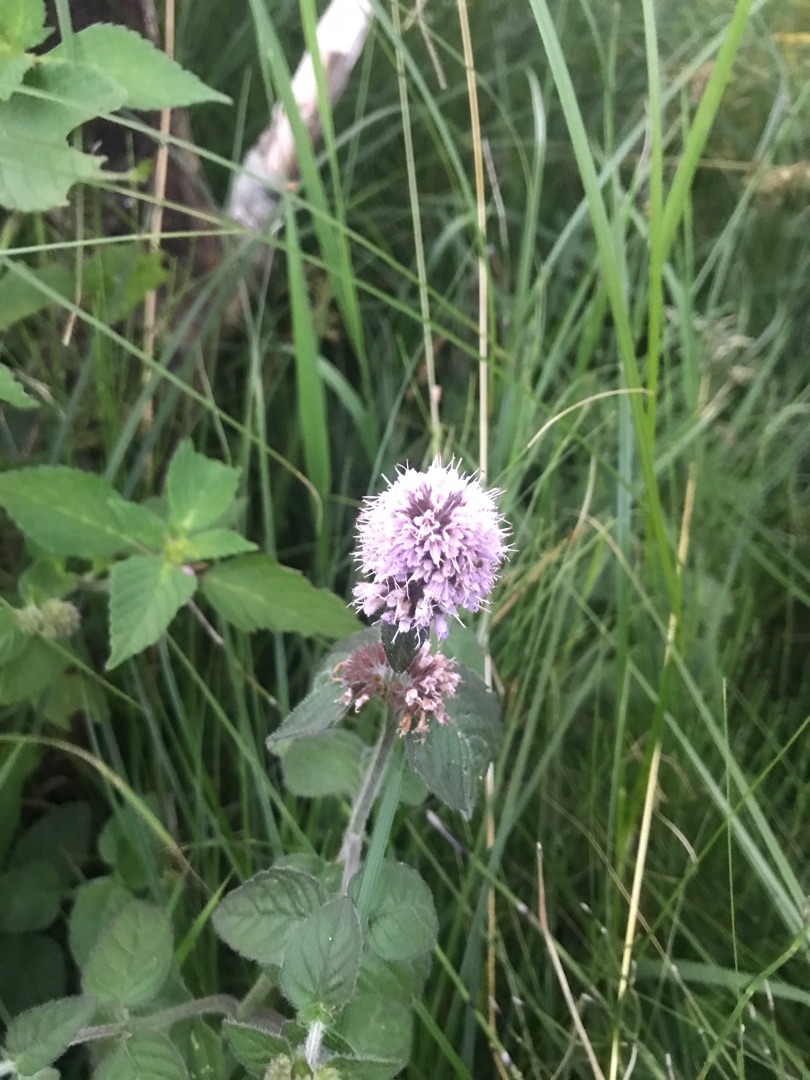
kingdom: Plantae
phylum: Tracheophyta
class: Magnoliopsida
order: Lamiales
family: Lamiaceae
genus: Mentha
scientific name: Mentha aquatica
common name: Vand-mynte
